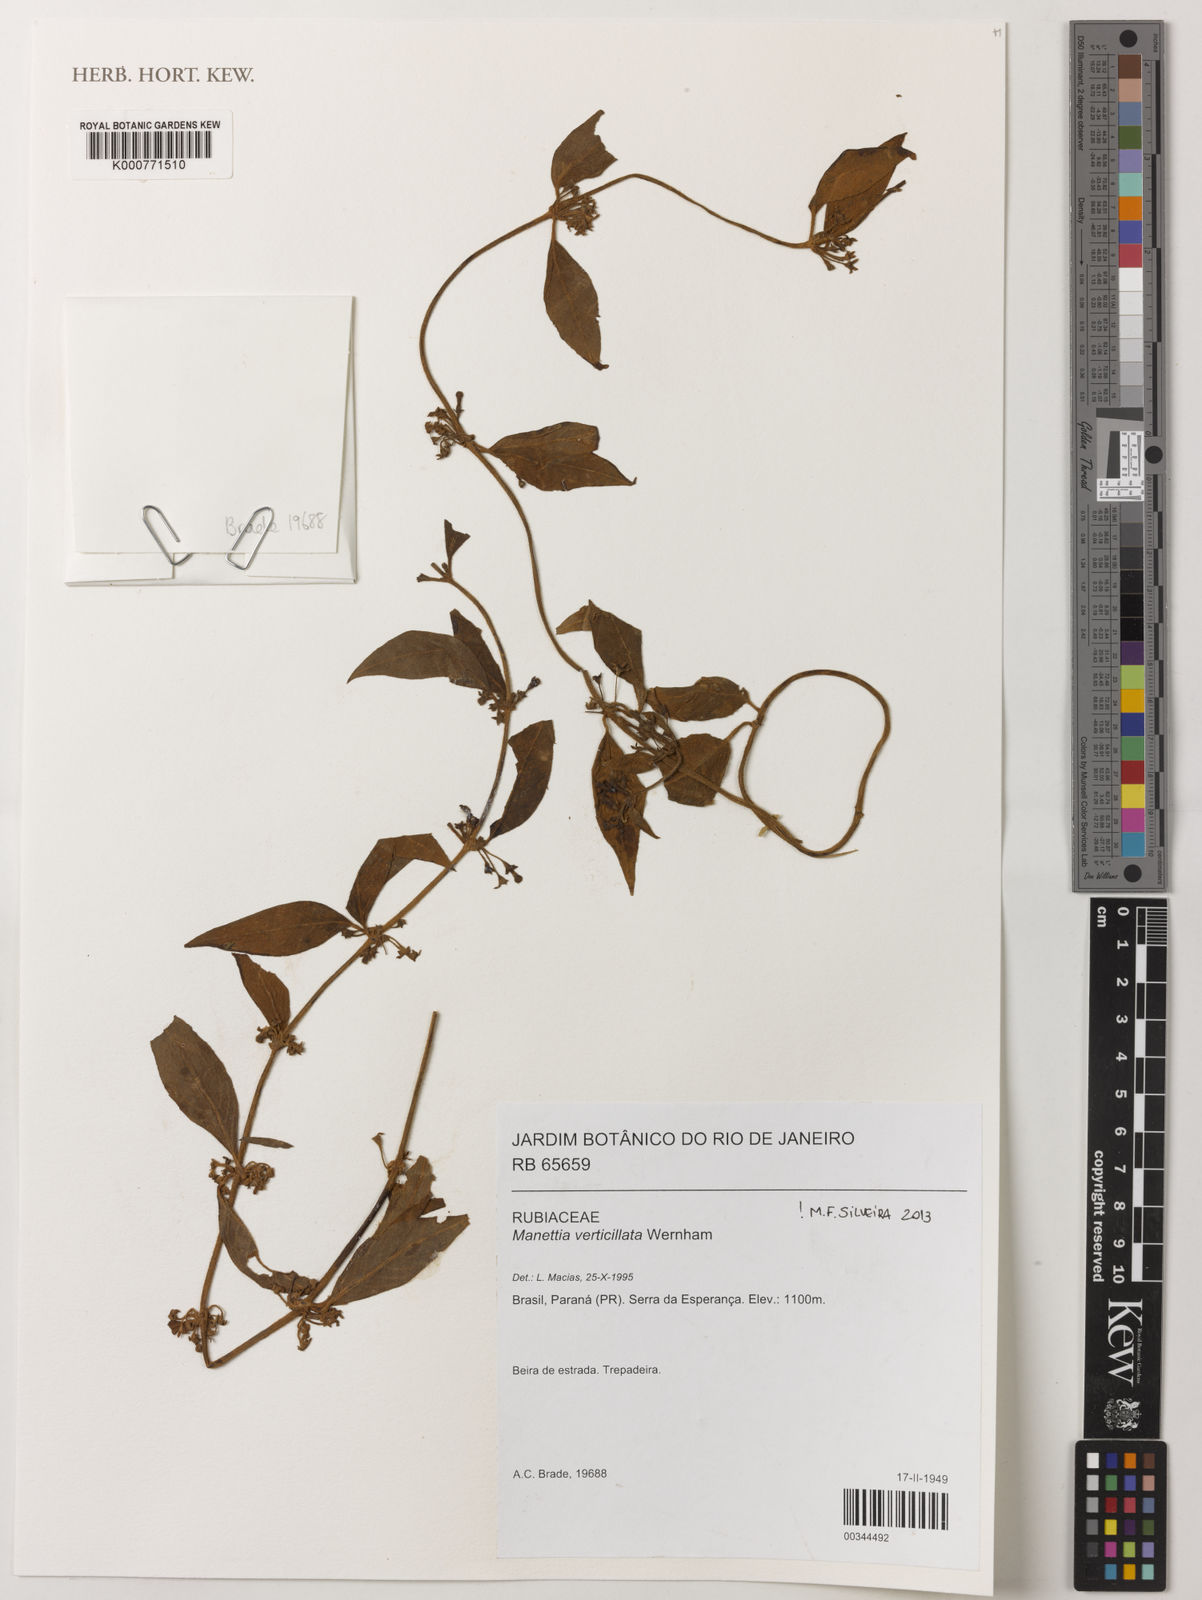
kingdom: Plantae
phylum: Tracheophyta
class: Magnoliopsida
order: Gentianales
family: Rubiaceae
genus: Manettia
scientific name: Manettia verticillata
